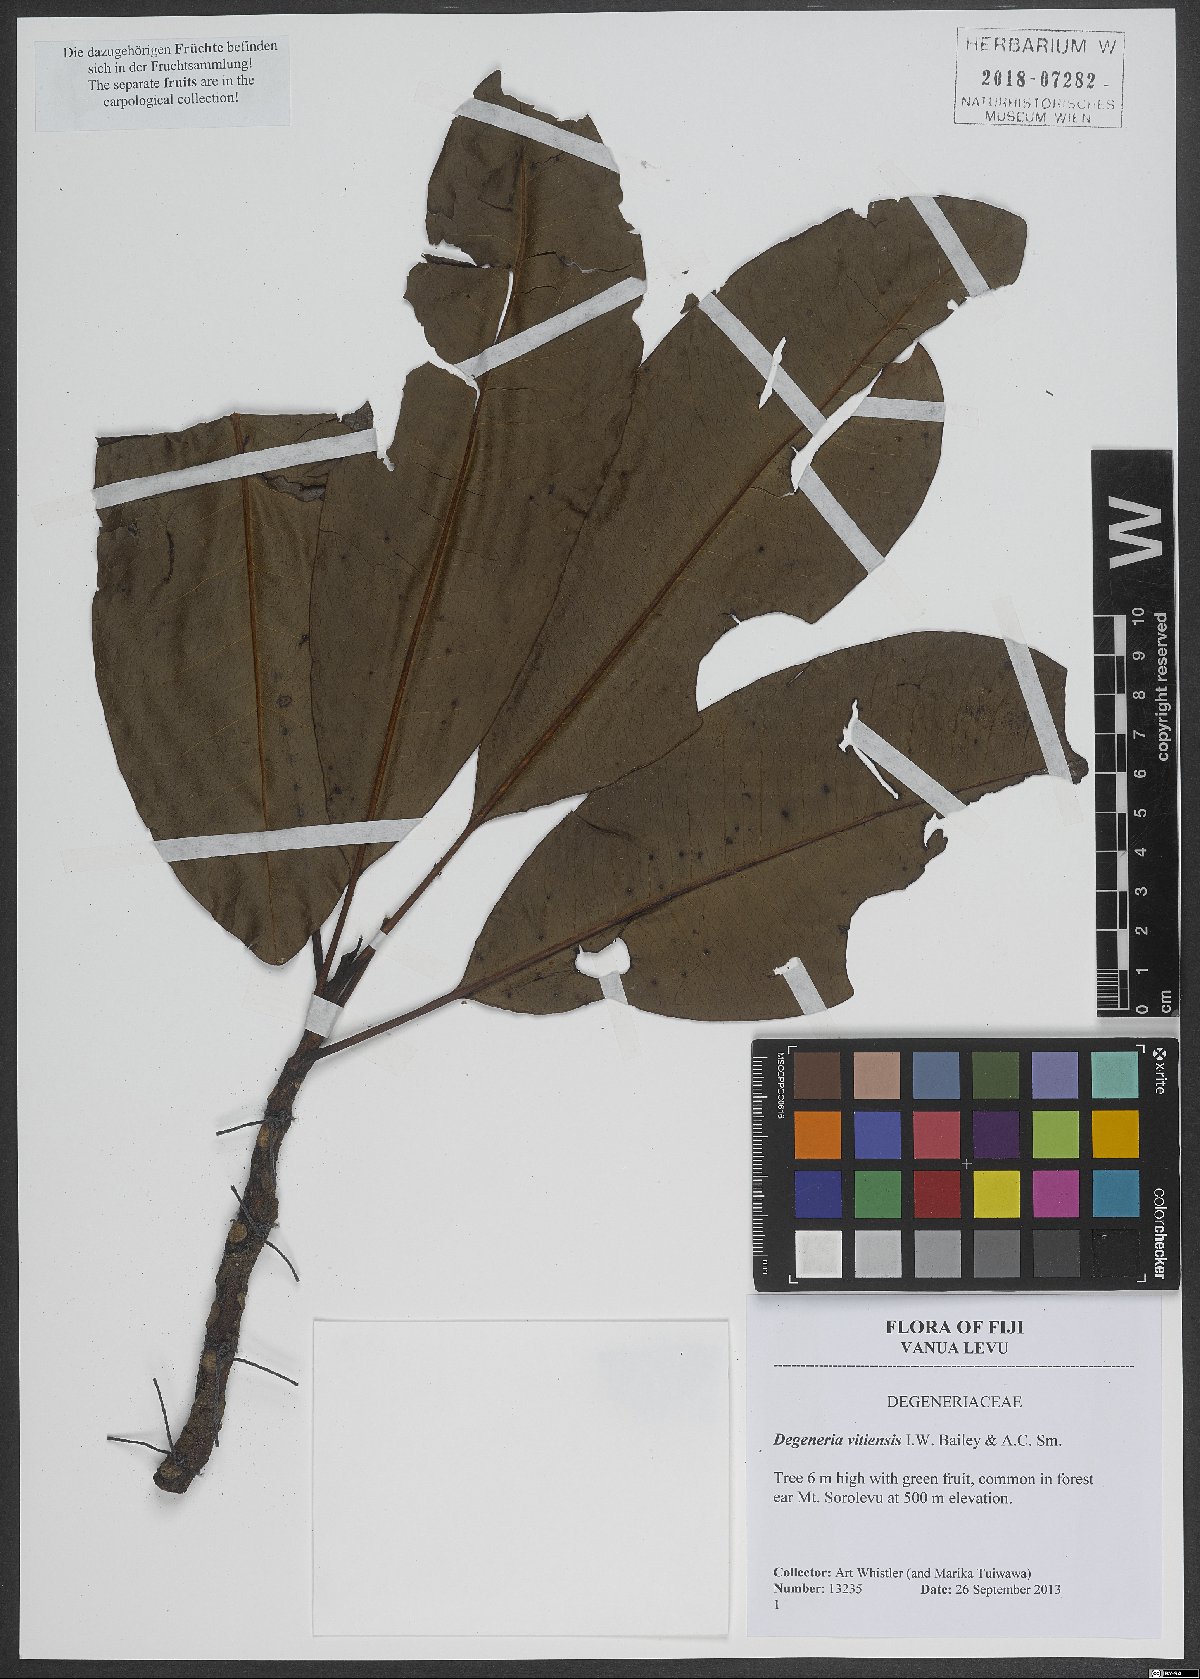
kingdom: Plantae
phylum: Tracheophyta
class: Magnoliopsida
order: Magnoliales
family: Degeneriaceae
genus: Degeneria
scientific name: Degeneria vitiensis
